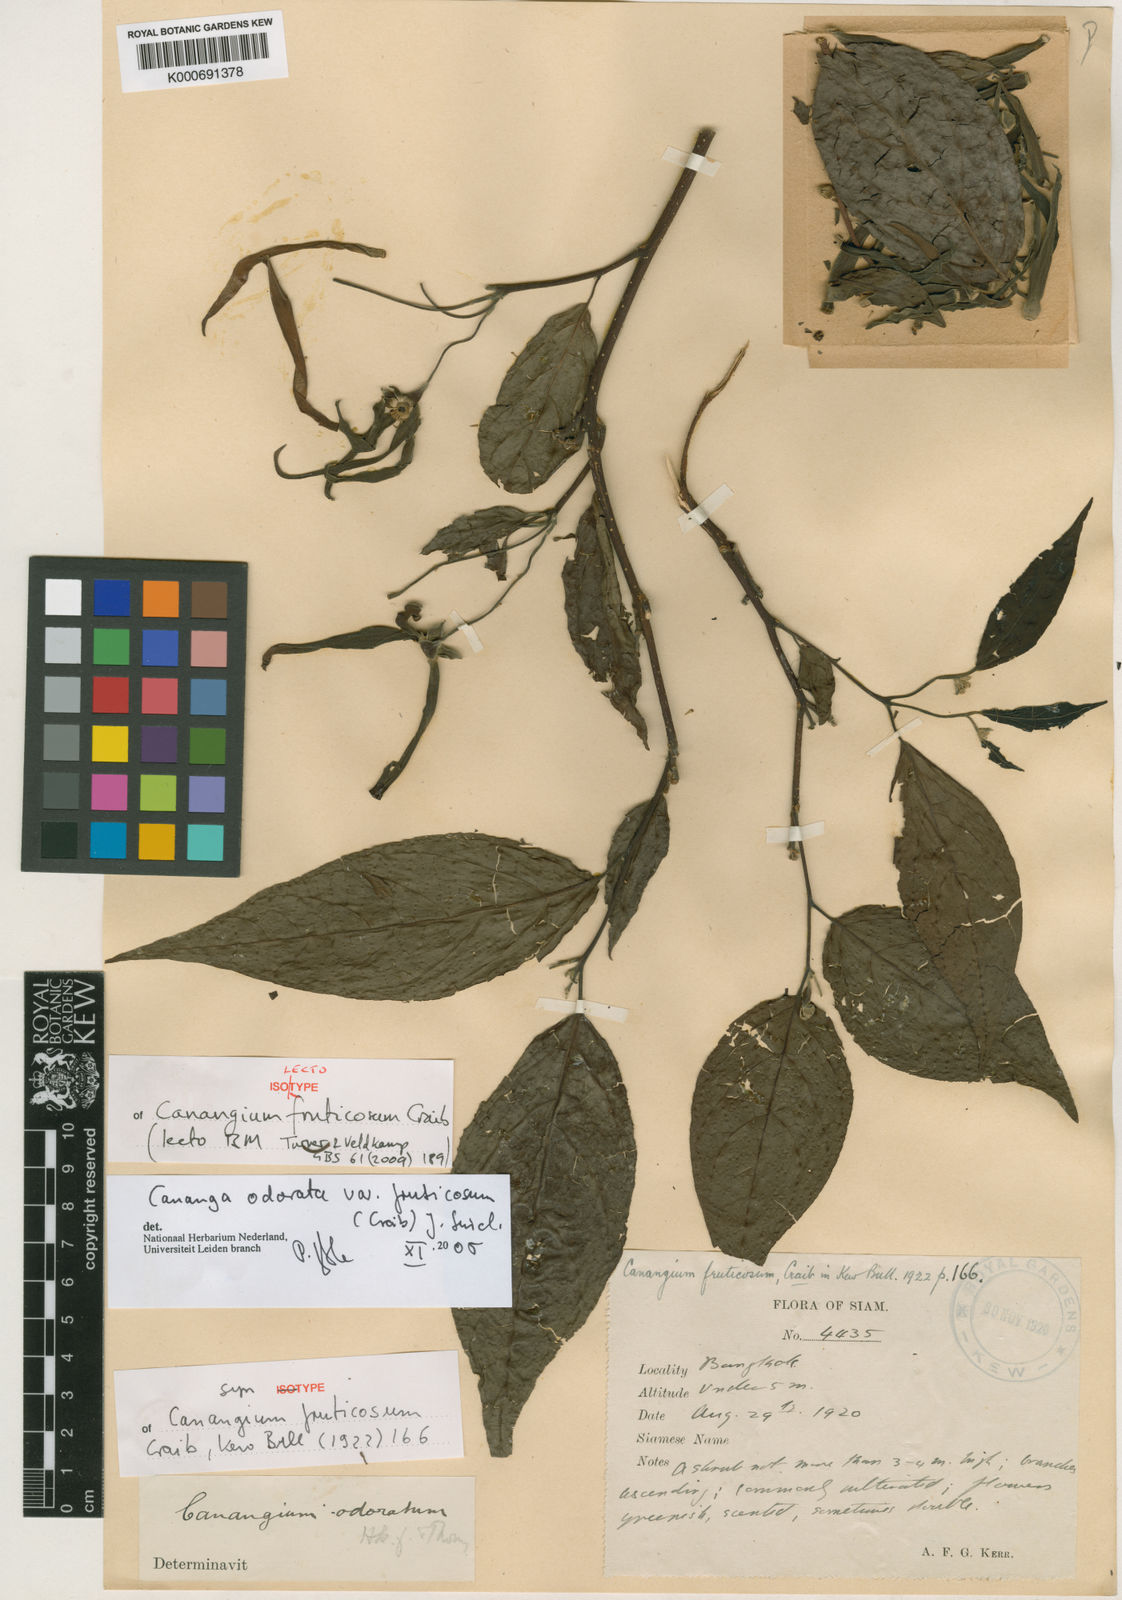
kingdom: Plantae
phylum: Tracheophyta
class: Magnoliopsida
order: Magnoliales
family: Annonaceae
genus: Cananga
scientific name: Cananga odorata
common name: Cananga tree
